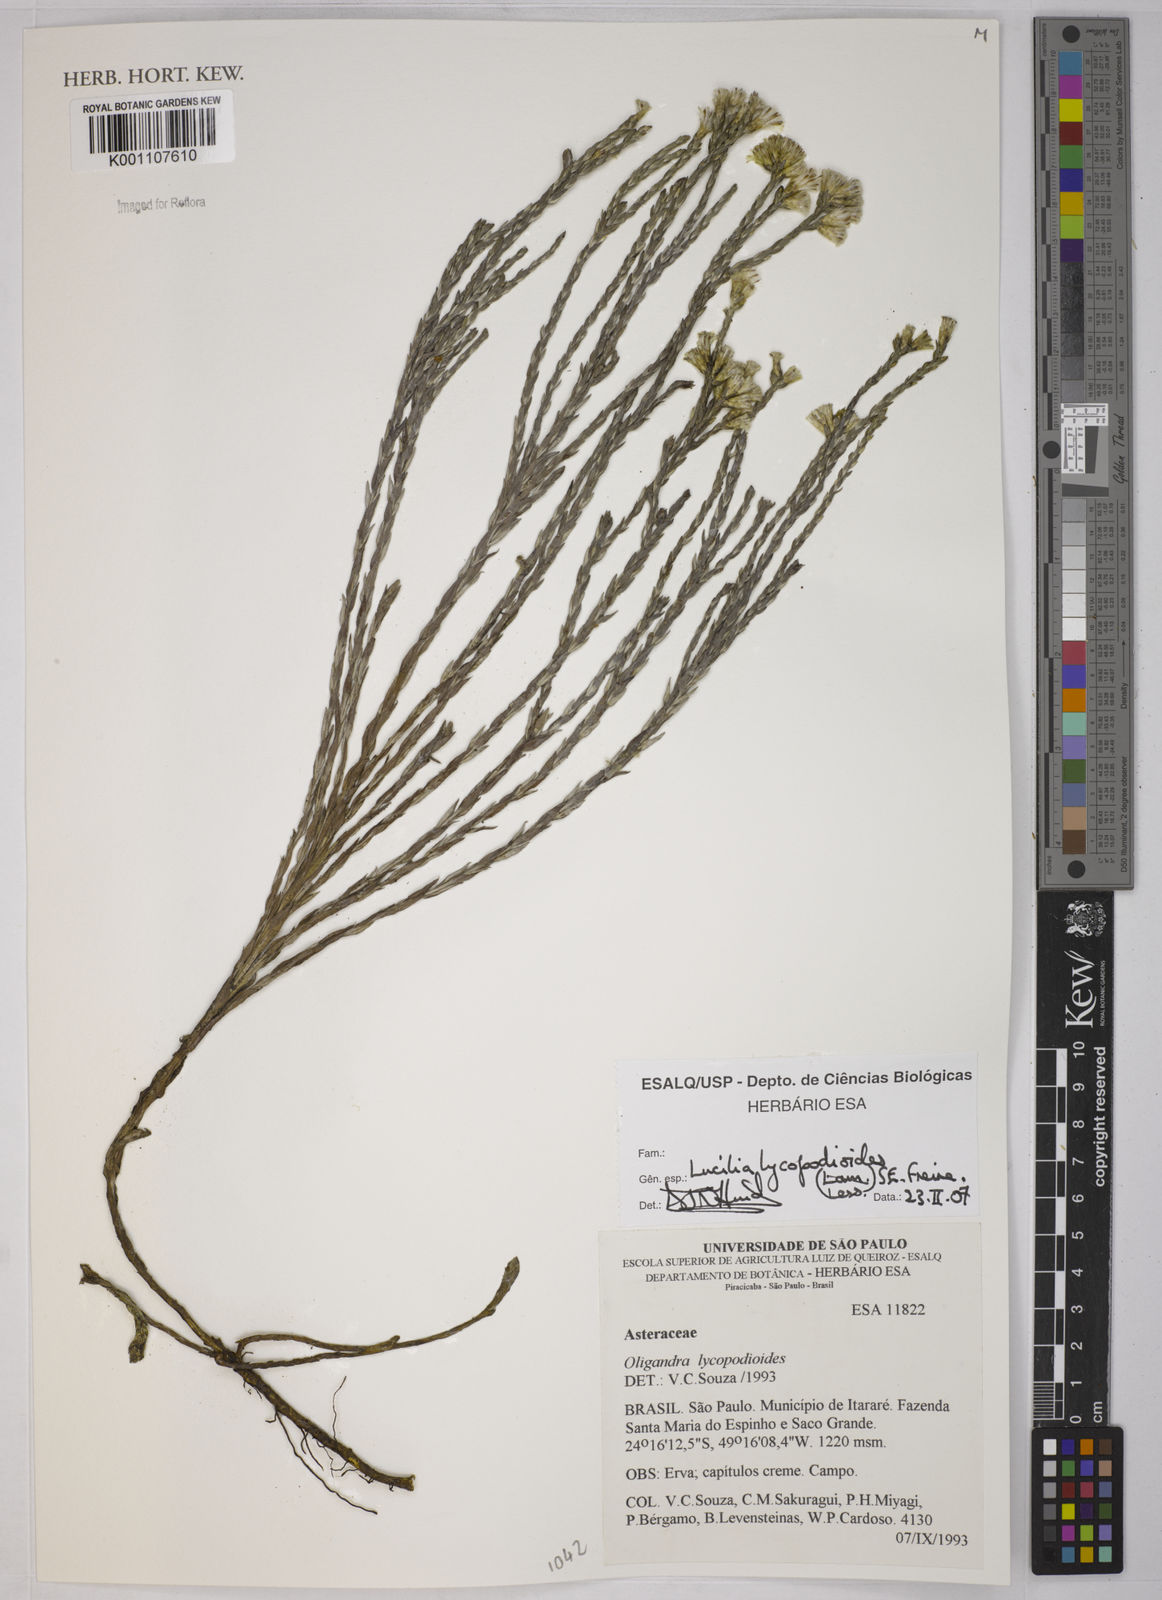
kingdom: Plantae
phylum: Tracheophyta
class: Magnoliopsida
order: Asterales
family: Asteraceae
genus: Lucilia
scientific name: Lucilia lycopodioides
